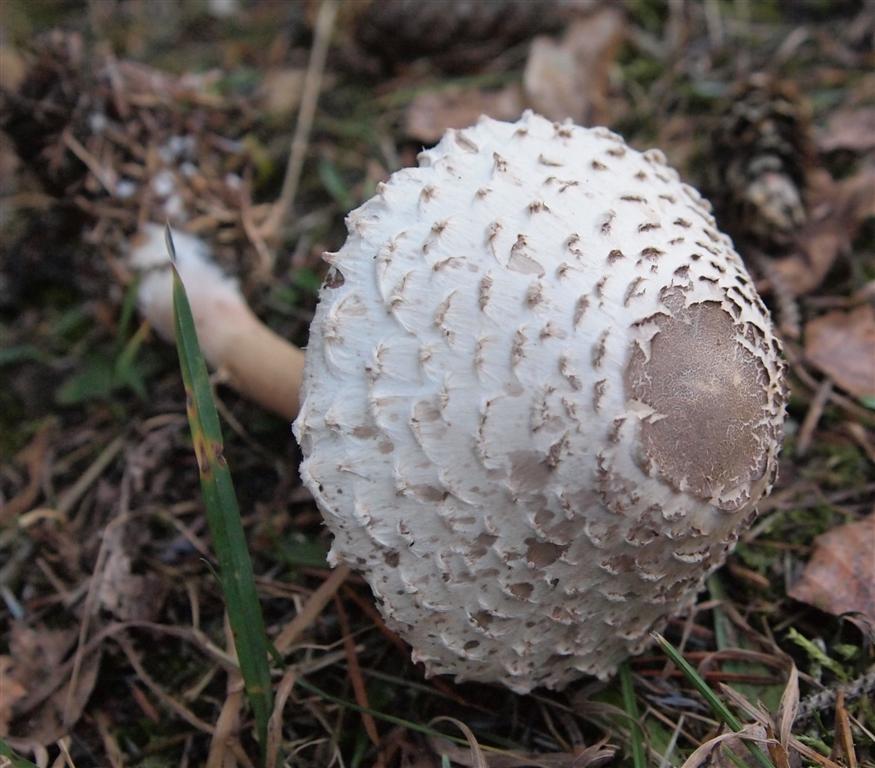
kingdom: Fungi
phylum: Basidiomycota
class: Agaricomycetes
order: Agaricales
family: Agaricaceae
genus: Leucoagaricus
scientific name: Leucoagaricus nympharum
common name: gran-silkehat
